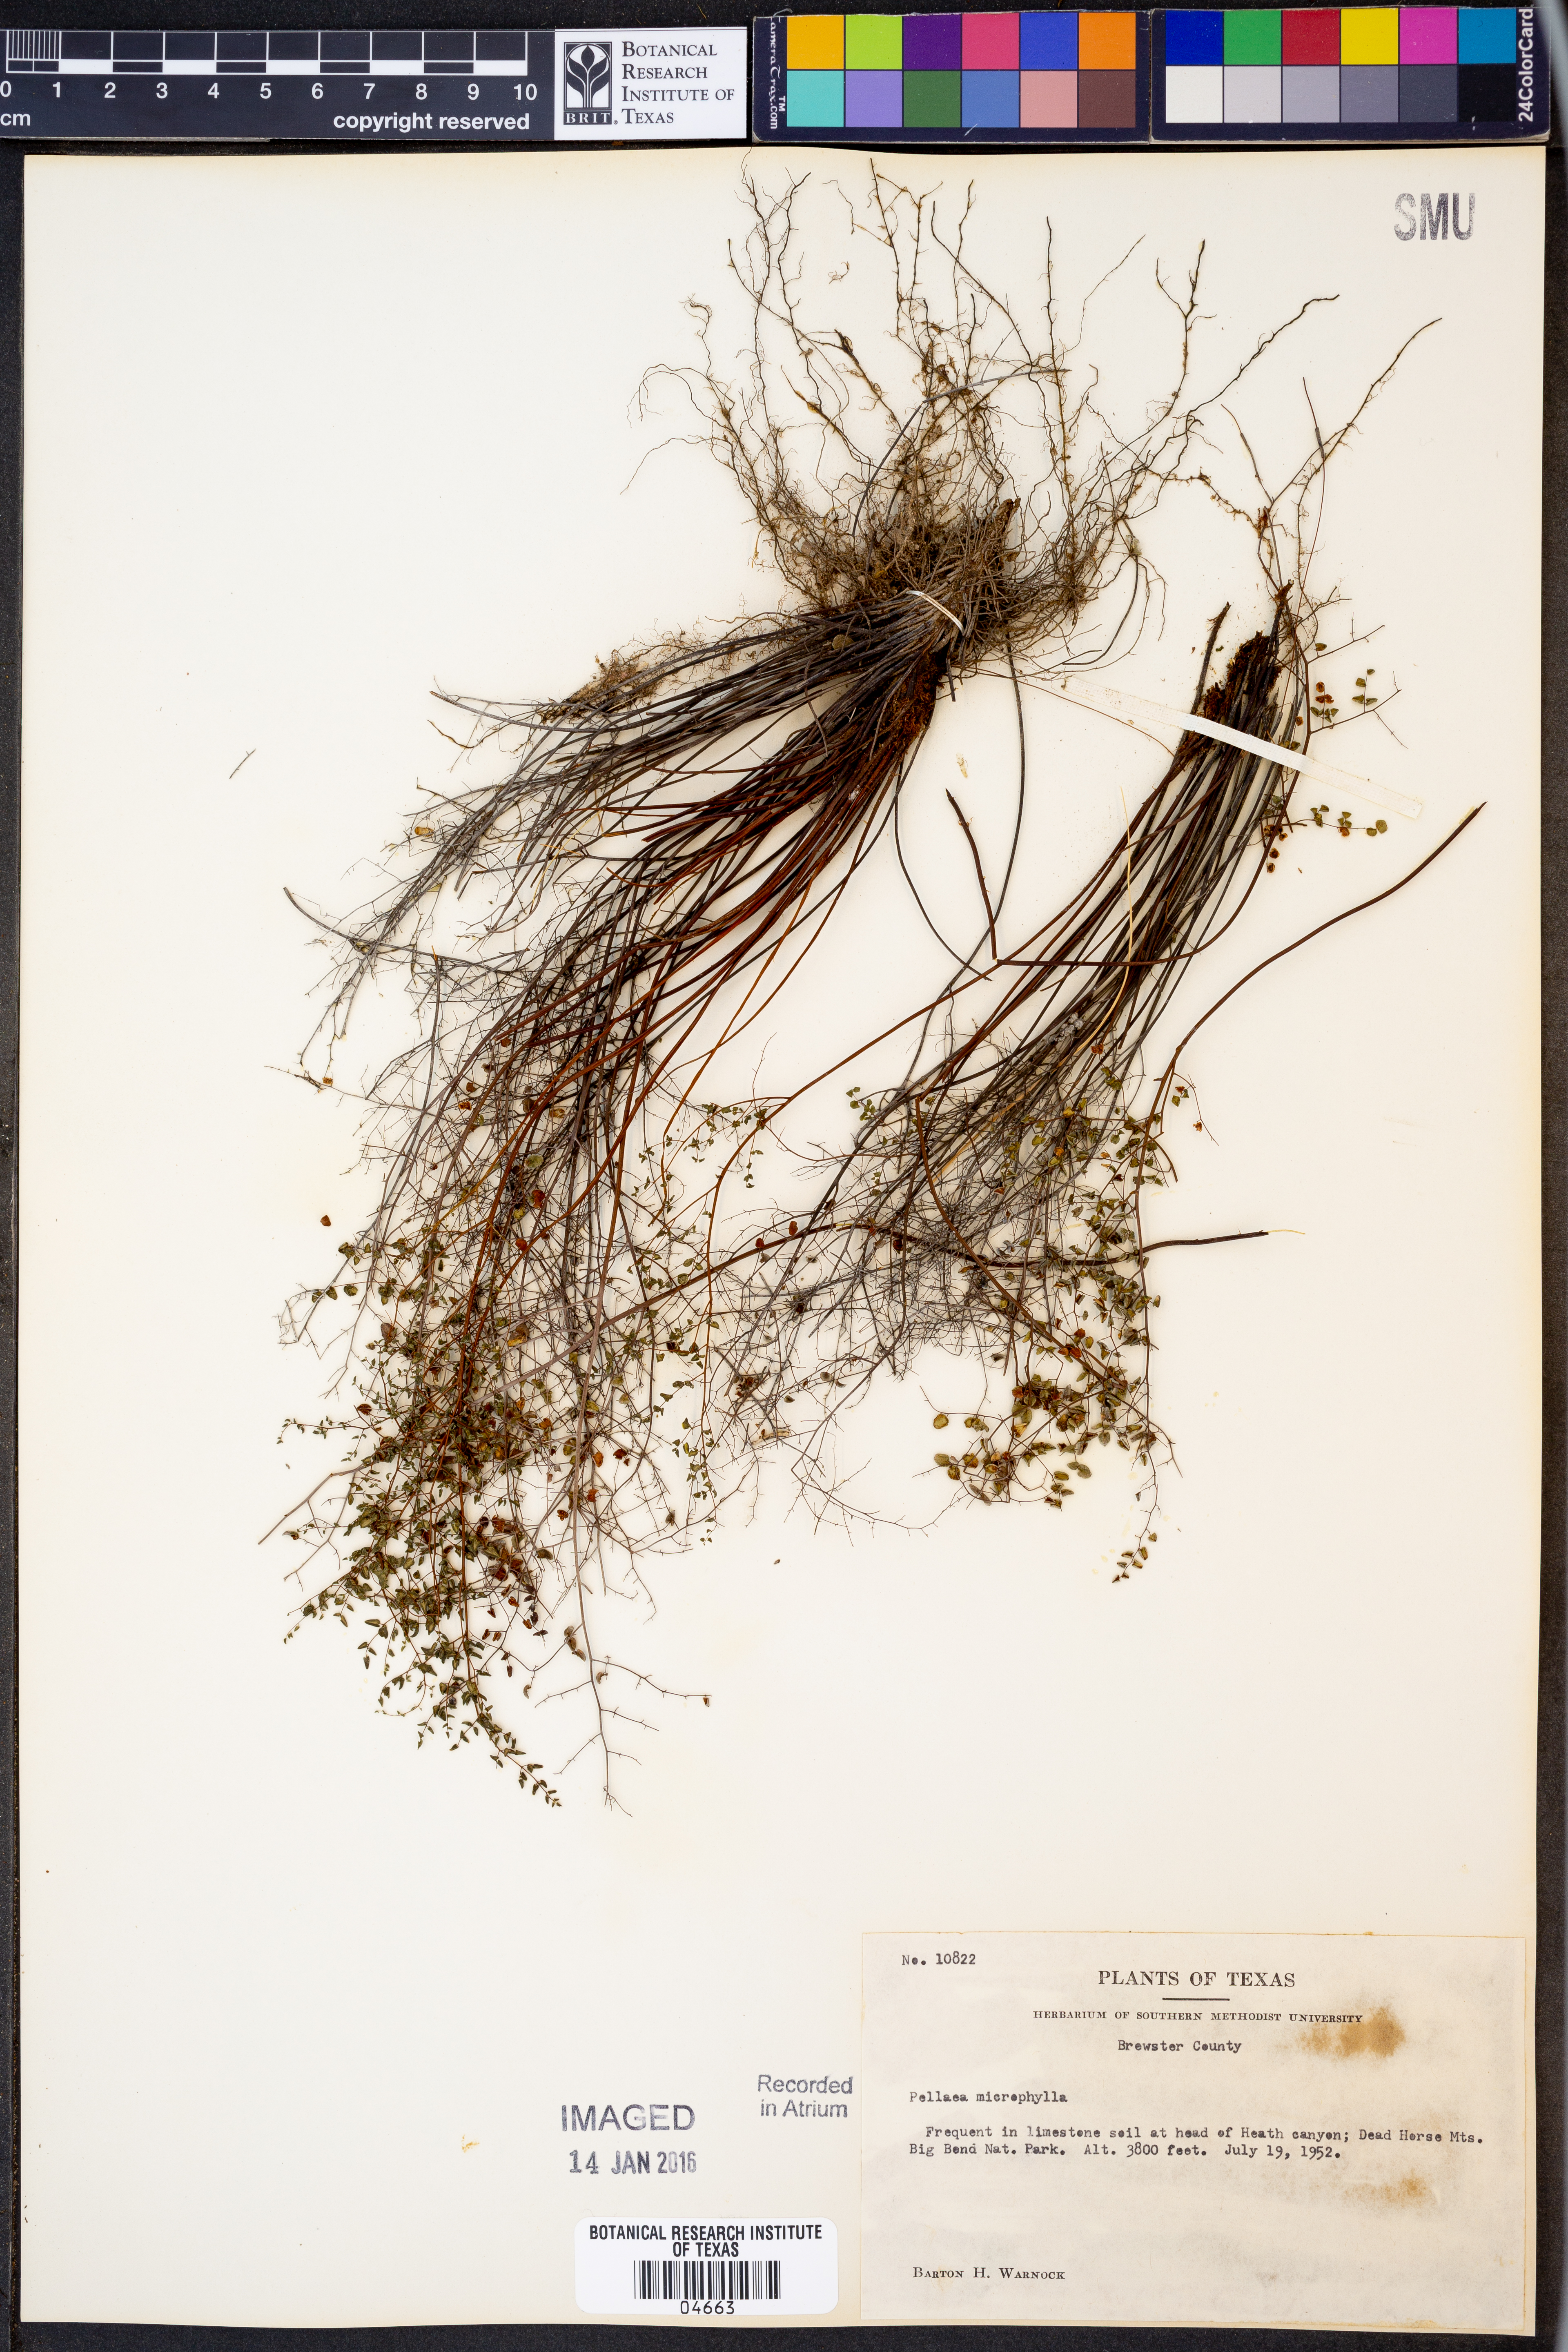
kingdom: Plantae
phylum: Tracheophyta
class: Polypodiopsida
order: Polypodiales
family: Pteridaceae
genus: Lytoneuron
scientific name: Lytoneuron microphyllum
